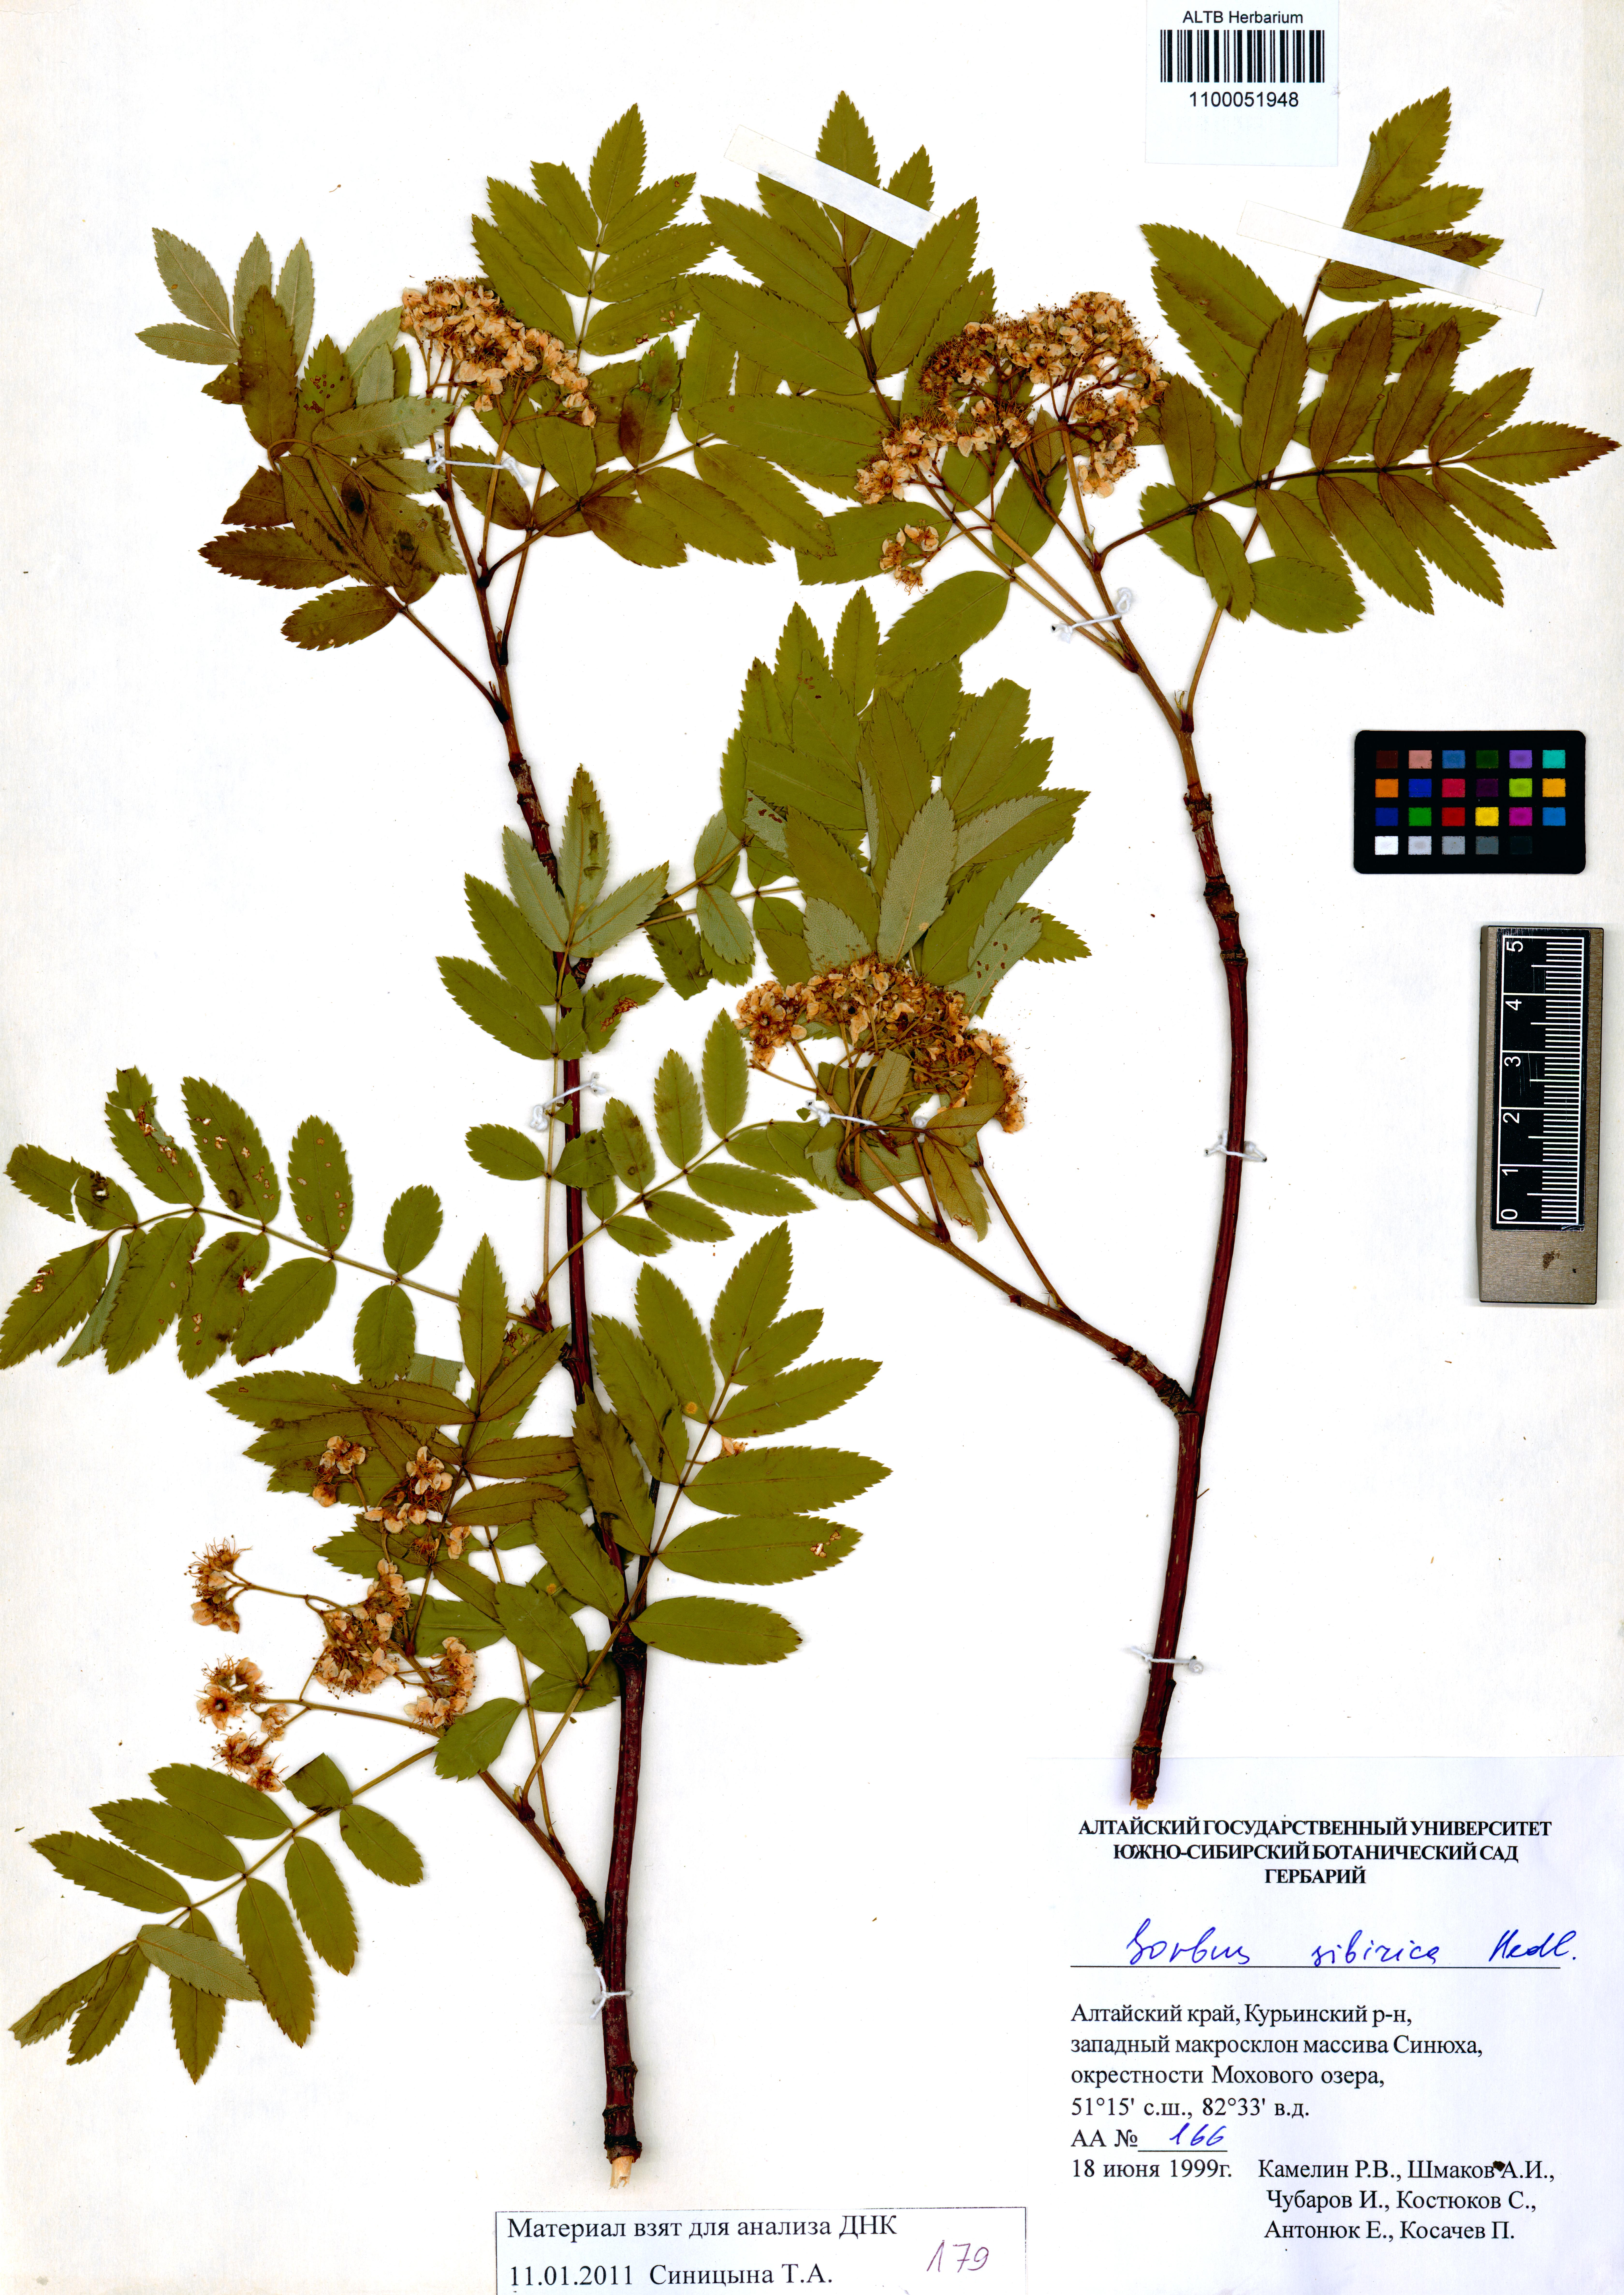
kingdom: Plantae
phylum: Tracheophyta
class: Magnoliopsida
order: Rosales
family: Rosaceae
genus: Sorbus
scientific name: Sorbus aucuparia
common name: Rowan
